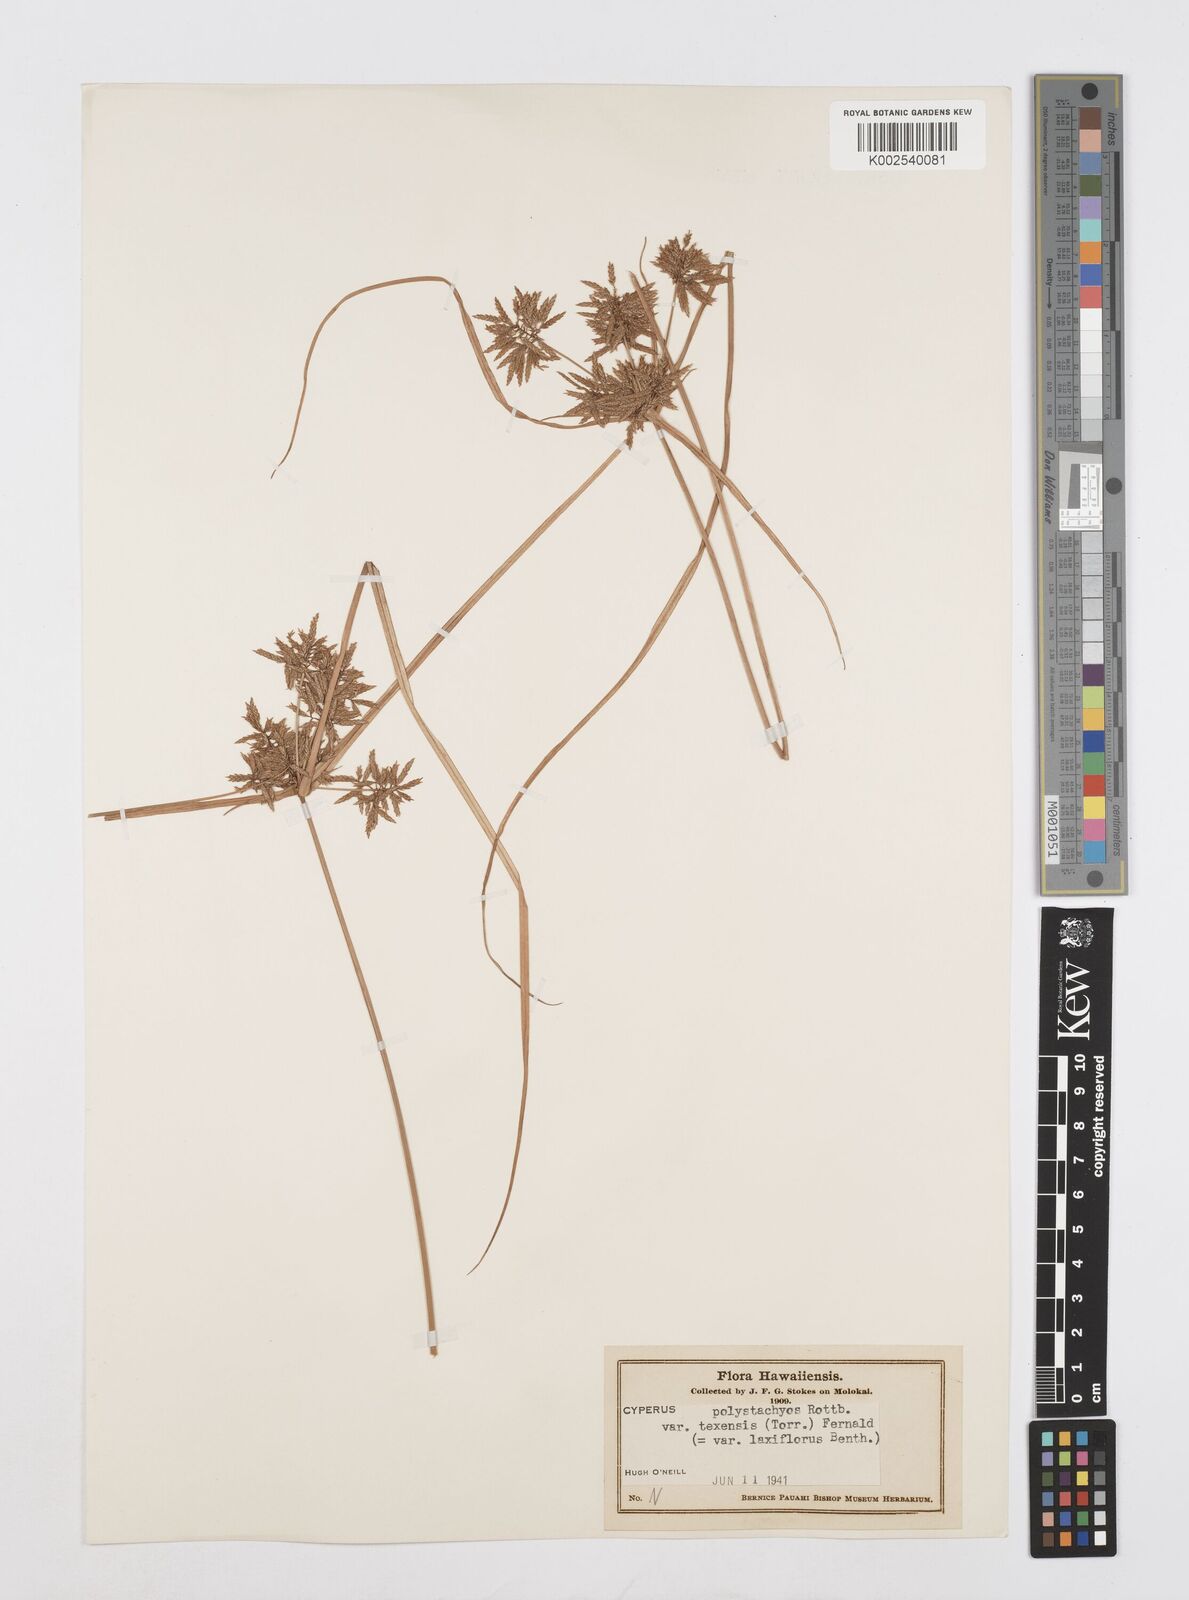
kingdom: Plantae
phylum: Tracheophyta
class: Liliopsida
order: Poales
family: Cyperaceae
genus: Cyperus
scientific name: Cyperus polystachyos
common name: Bunchy flat sedge
